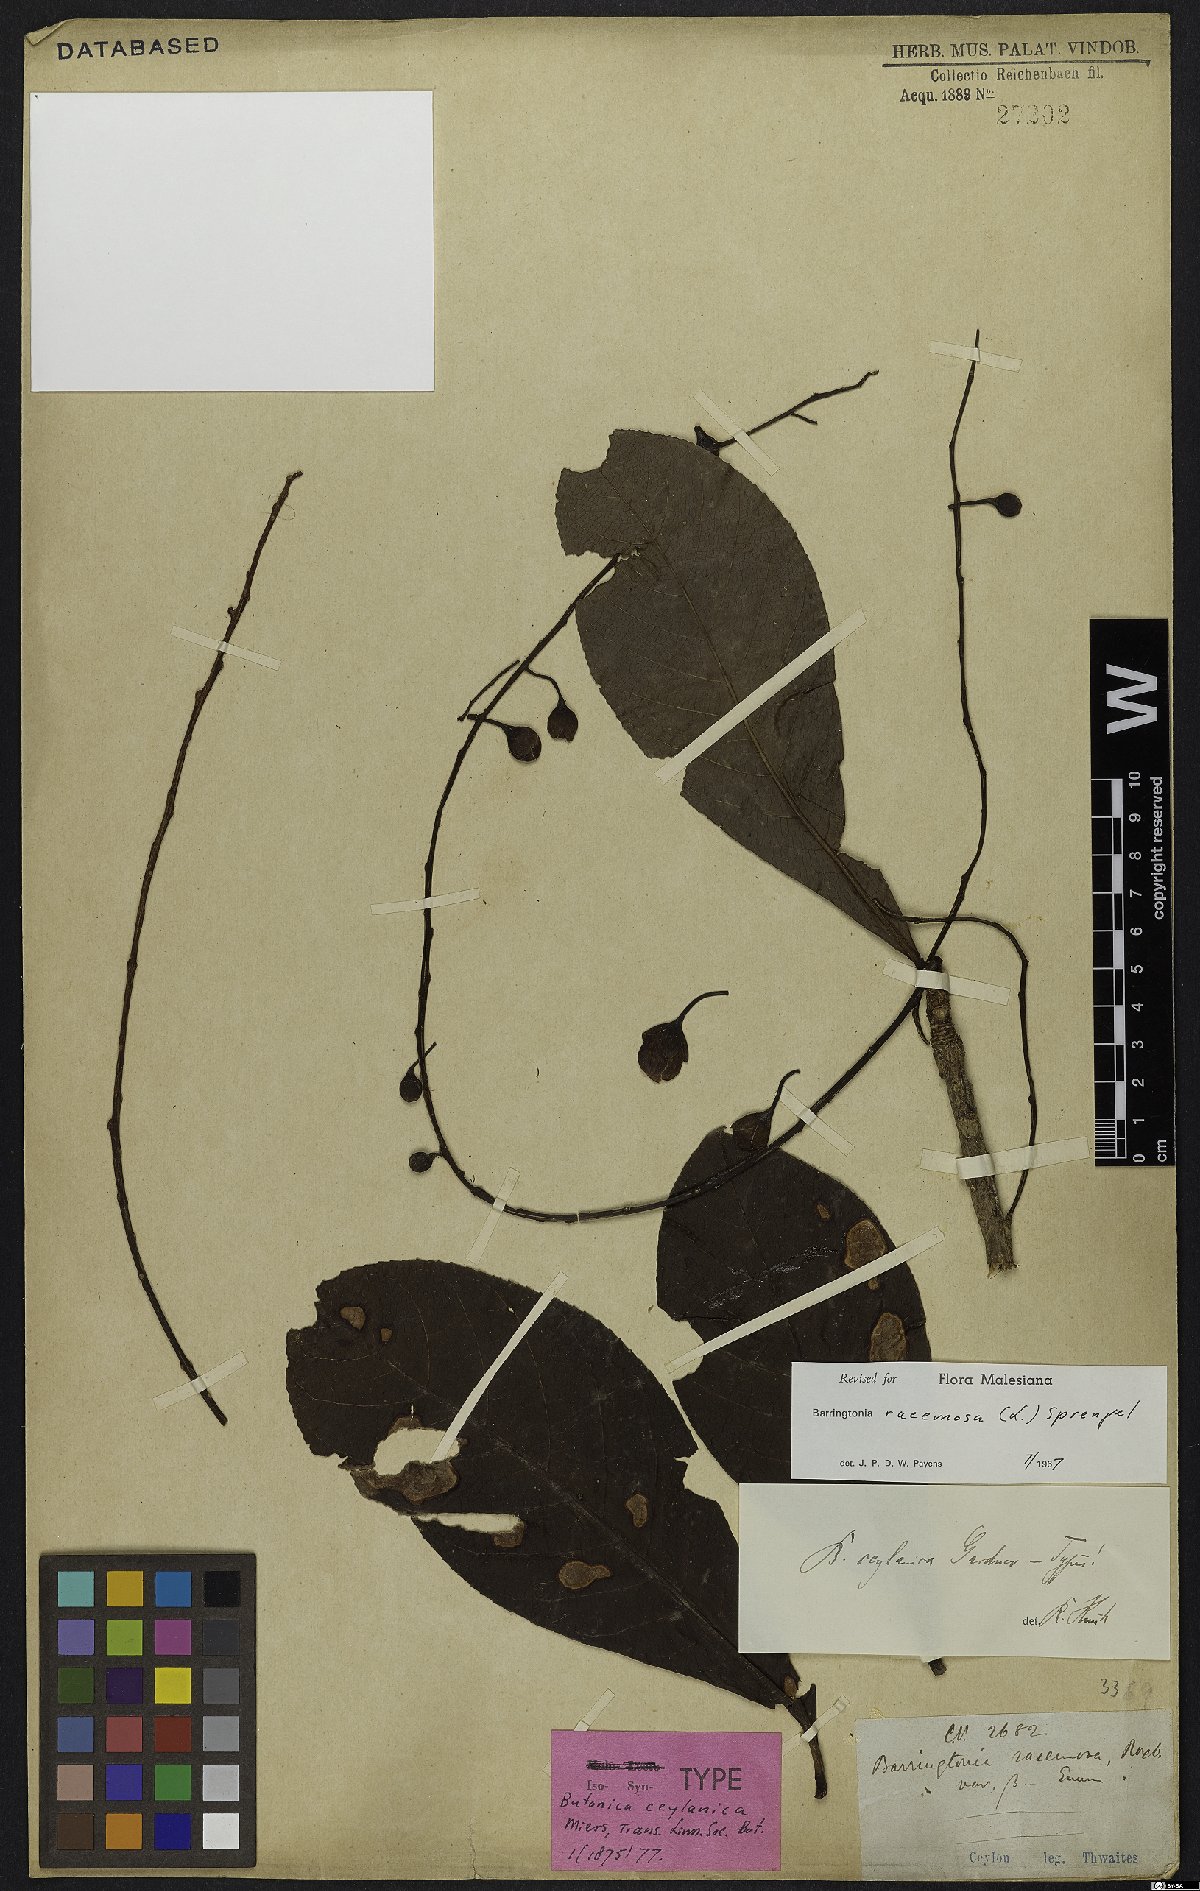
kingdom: Plantae
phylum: Tracheophyta
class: Magnoliopsida
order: Ericales
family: Lecythidaceae
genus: Barringtonia
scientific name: Barringtonia racemosa
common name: Brackwater mangrove
